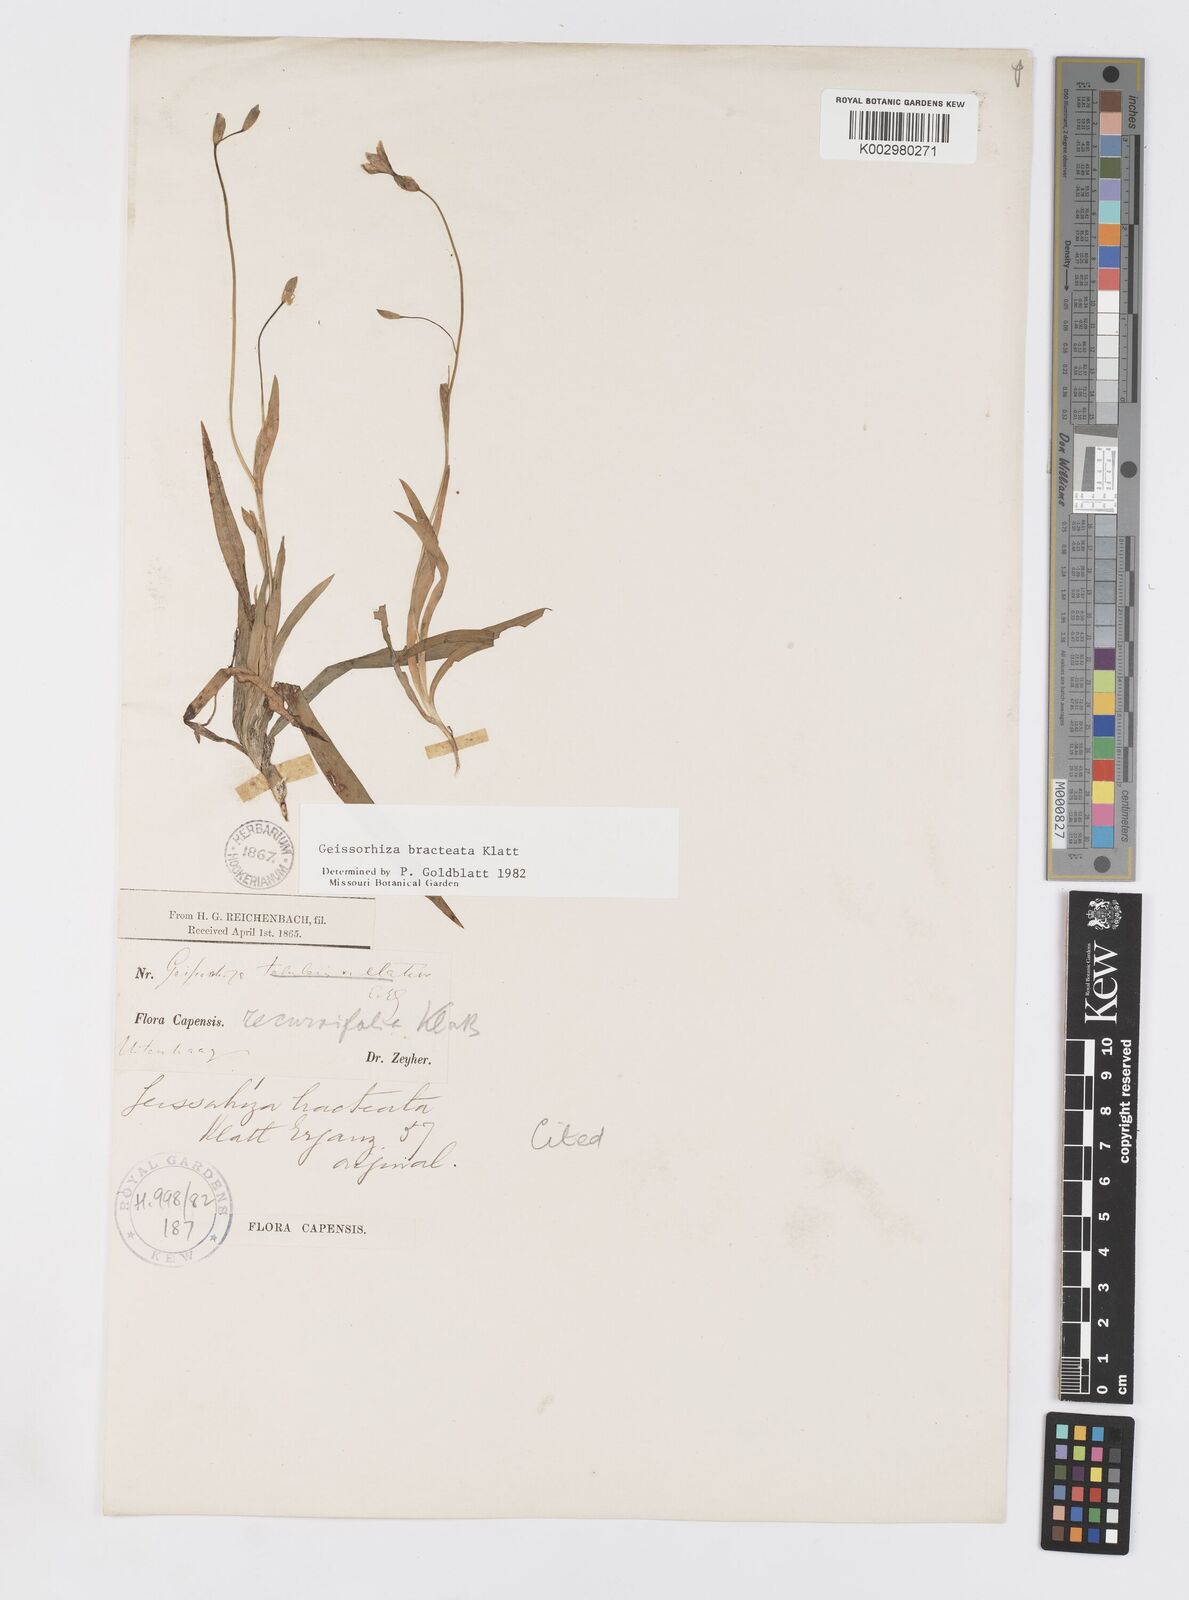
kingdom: Plantae
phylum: Tracheophyta
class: Liliopsida
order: Asparagales
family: Iridaceae
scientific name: Iridaceae
